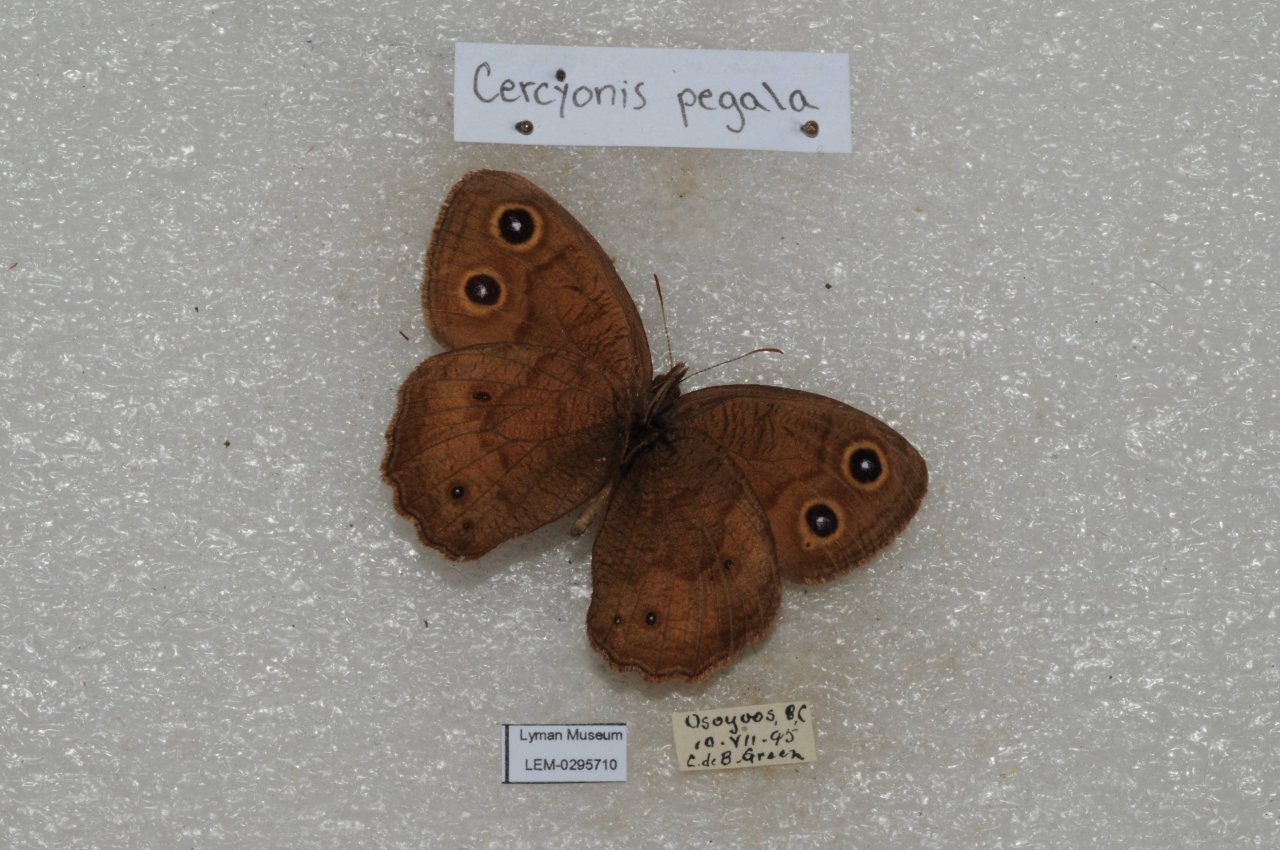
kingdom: Animalia
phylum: Arthropoda
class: Insecta
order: Lepidoptera
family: Nymphalidae
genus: Cercyonis
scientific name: Cercyonis pegala
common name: Common Wood-Nymph
